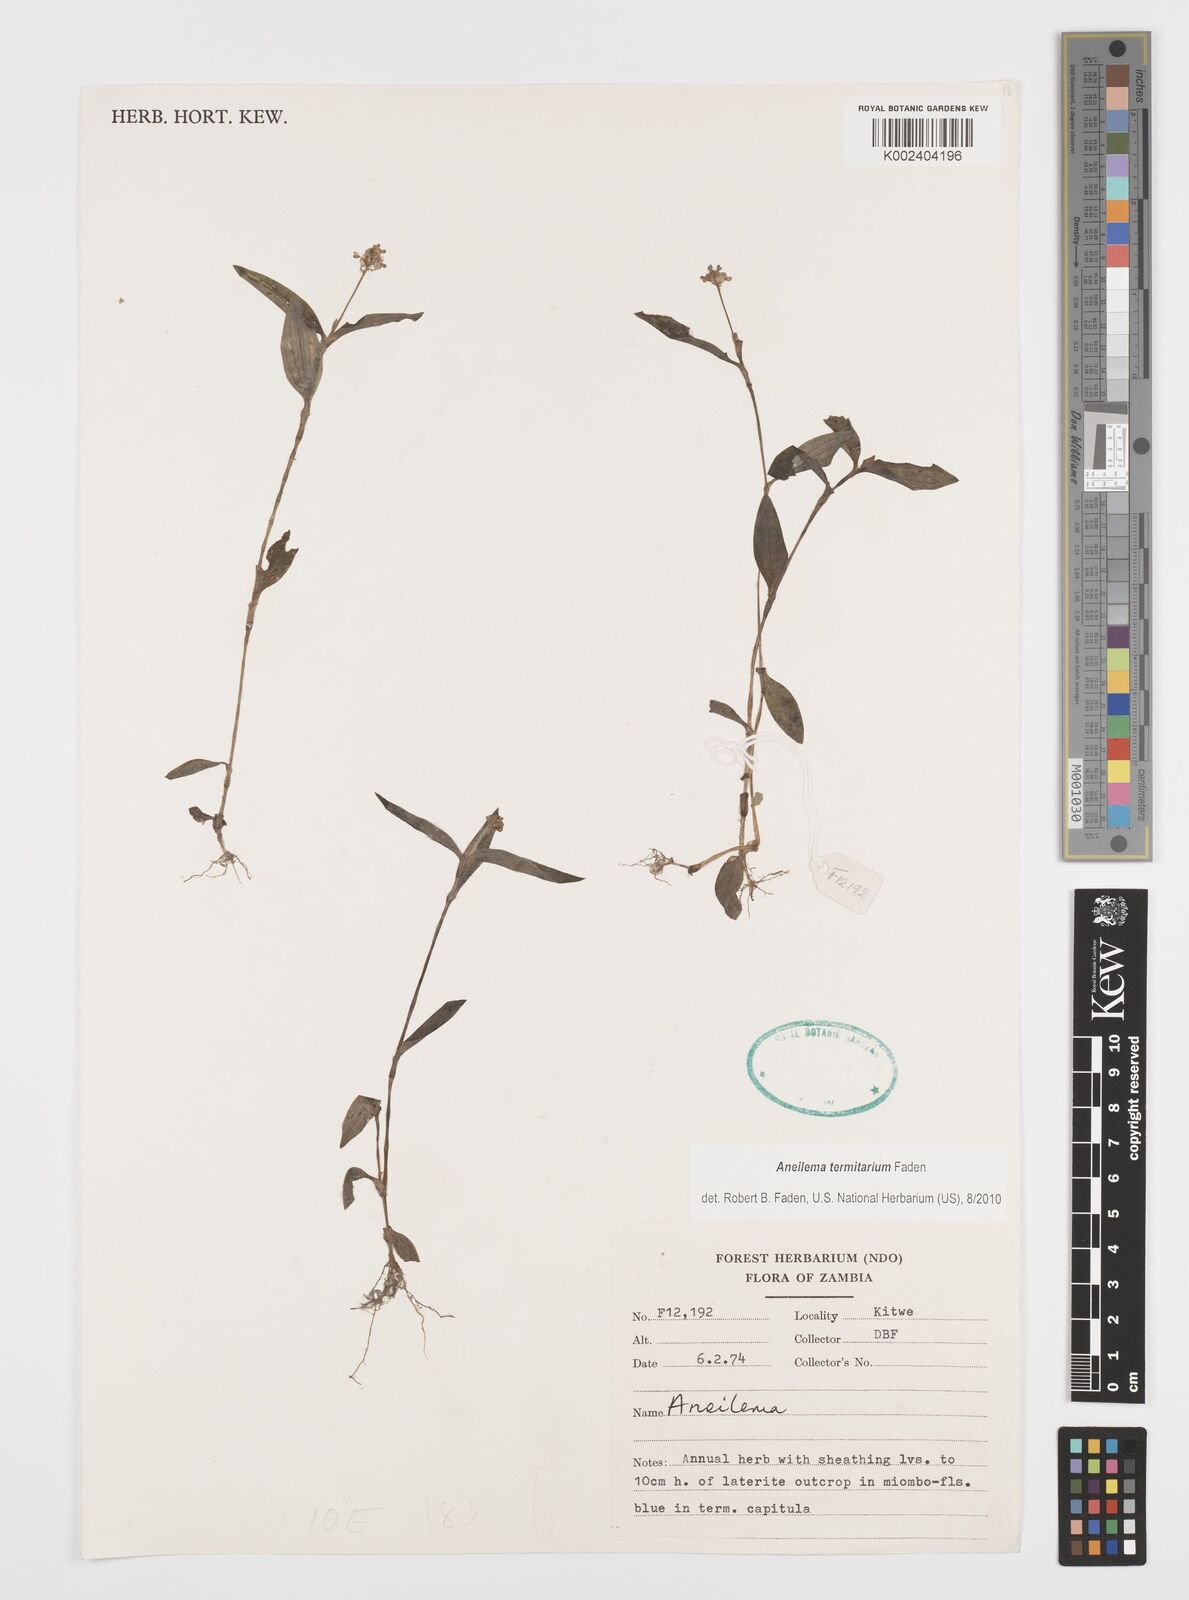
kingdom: Plantae
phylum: Tracheophyta
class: Liliopsida
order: Commelinales
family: Commelinaceae
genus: Aneilema
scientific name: Aneilema termitarium
